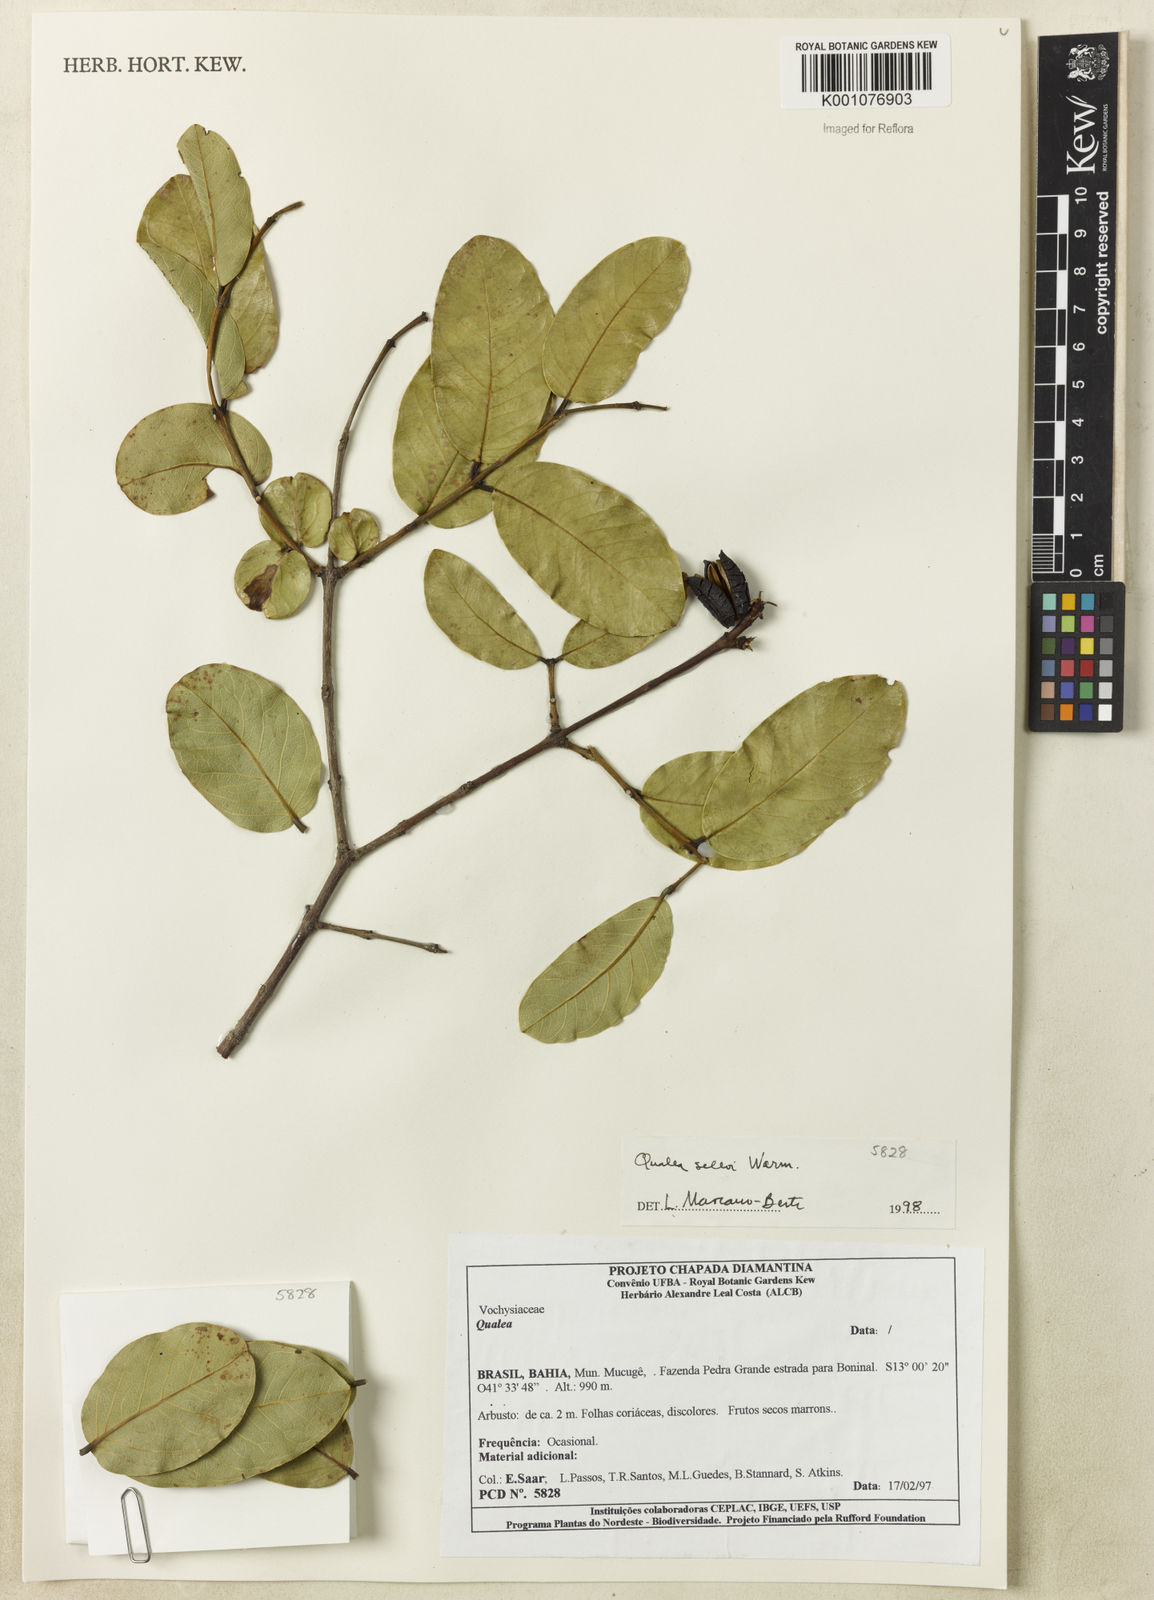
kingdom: Plantae
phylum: Tracheophyta
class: Magnoliopsida
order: Myrtales
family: Vochysiaceae
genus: Qualea
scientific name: Qualea selloi
